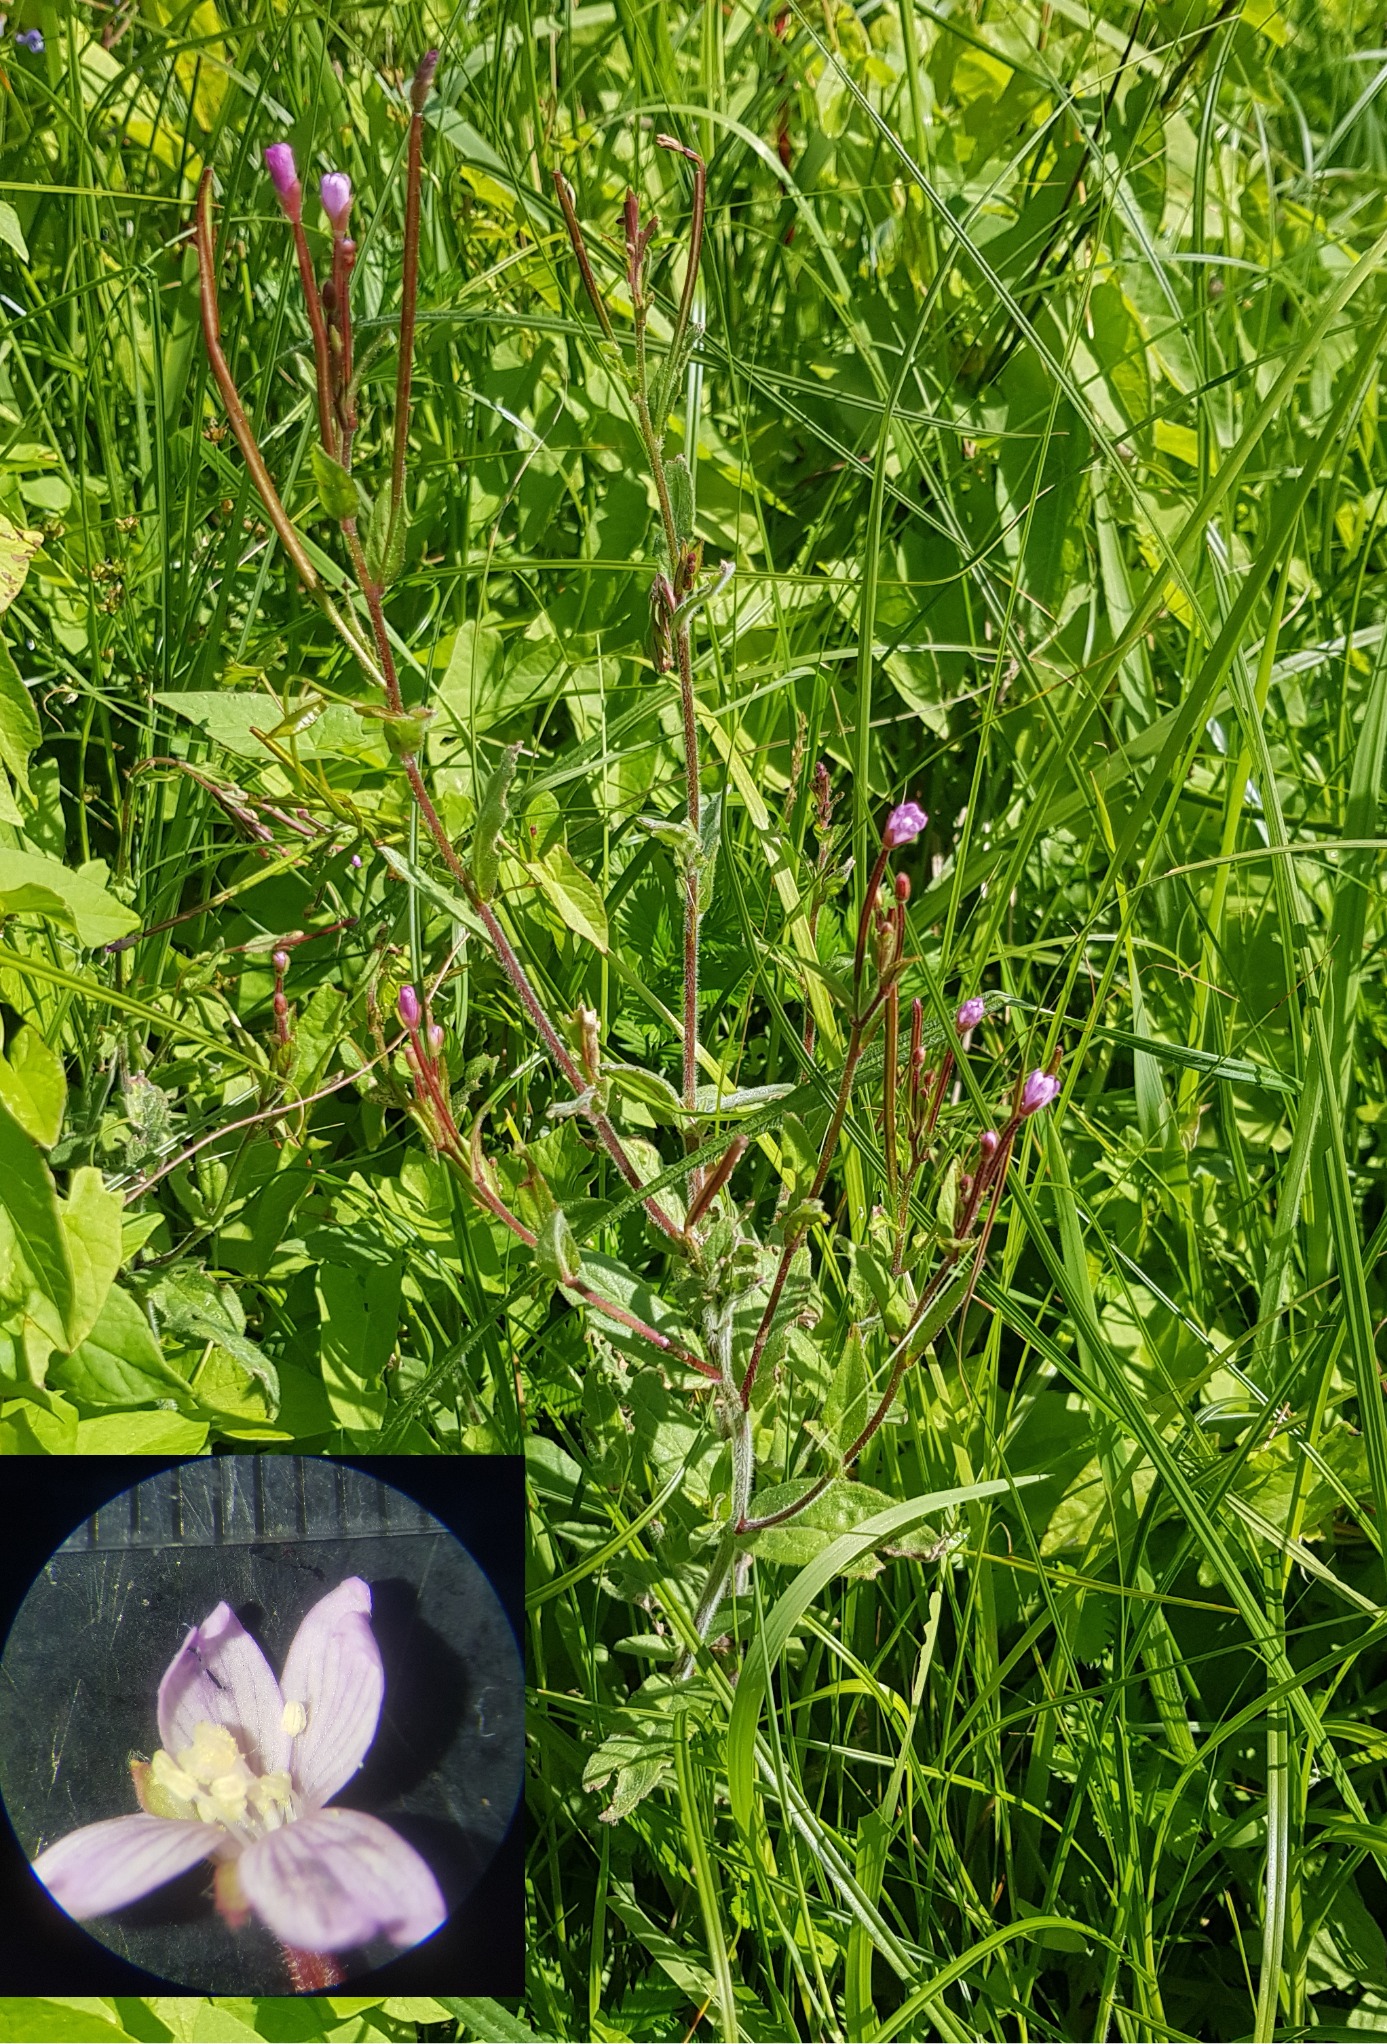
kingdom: Plantae
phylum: Tracheophyta
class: Magnoliopsida
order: Myrtales
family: Onagraceae
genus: Epilobium
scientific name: Epilobium parviflorum
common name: Dunet dueurt
